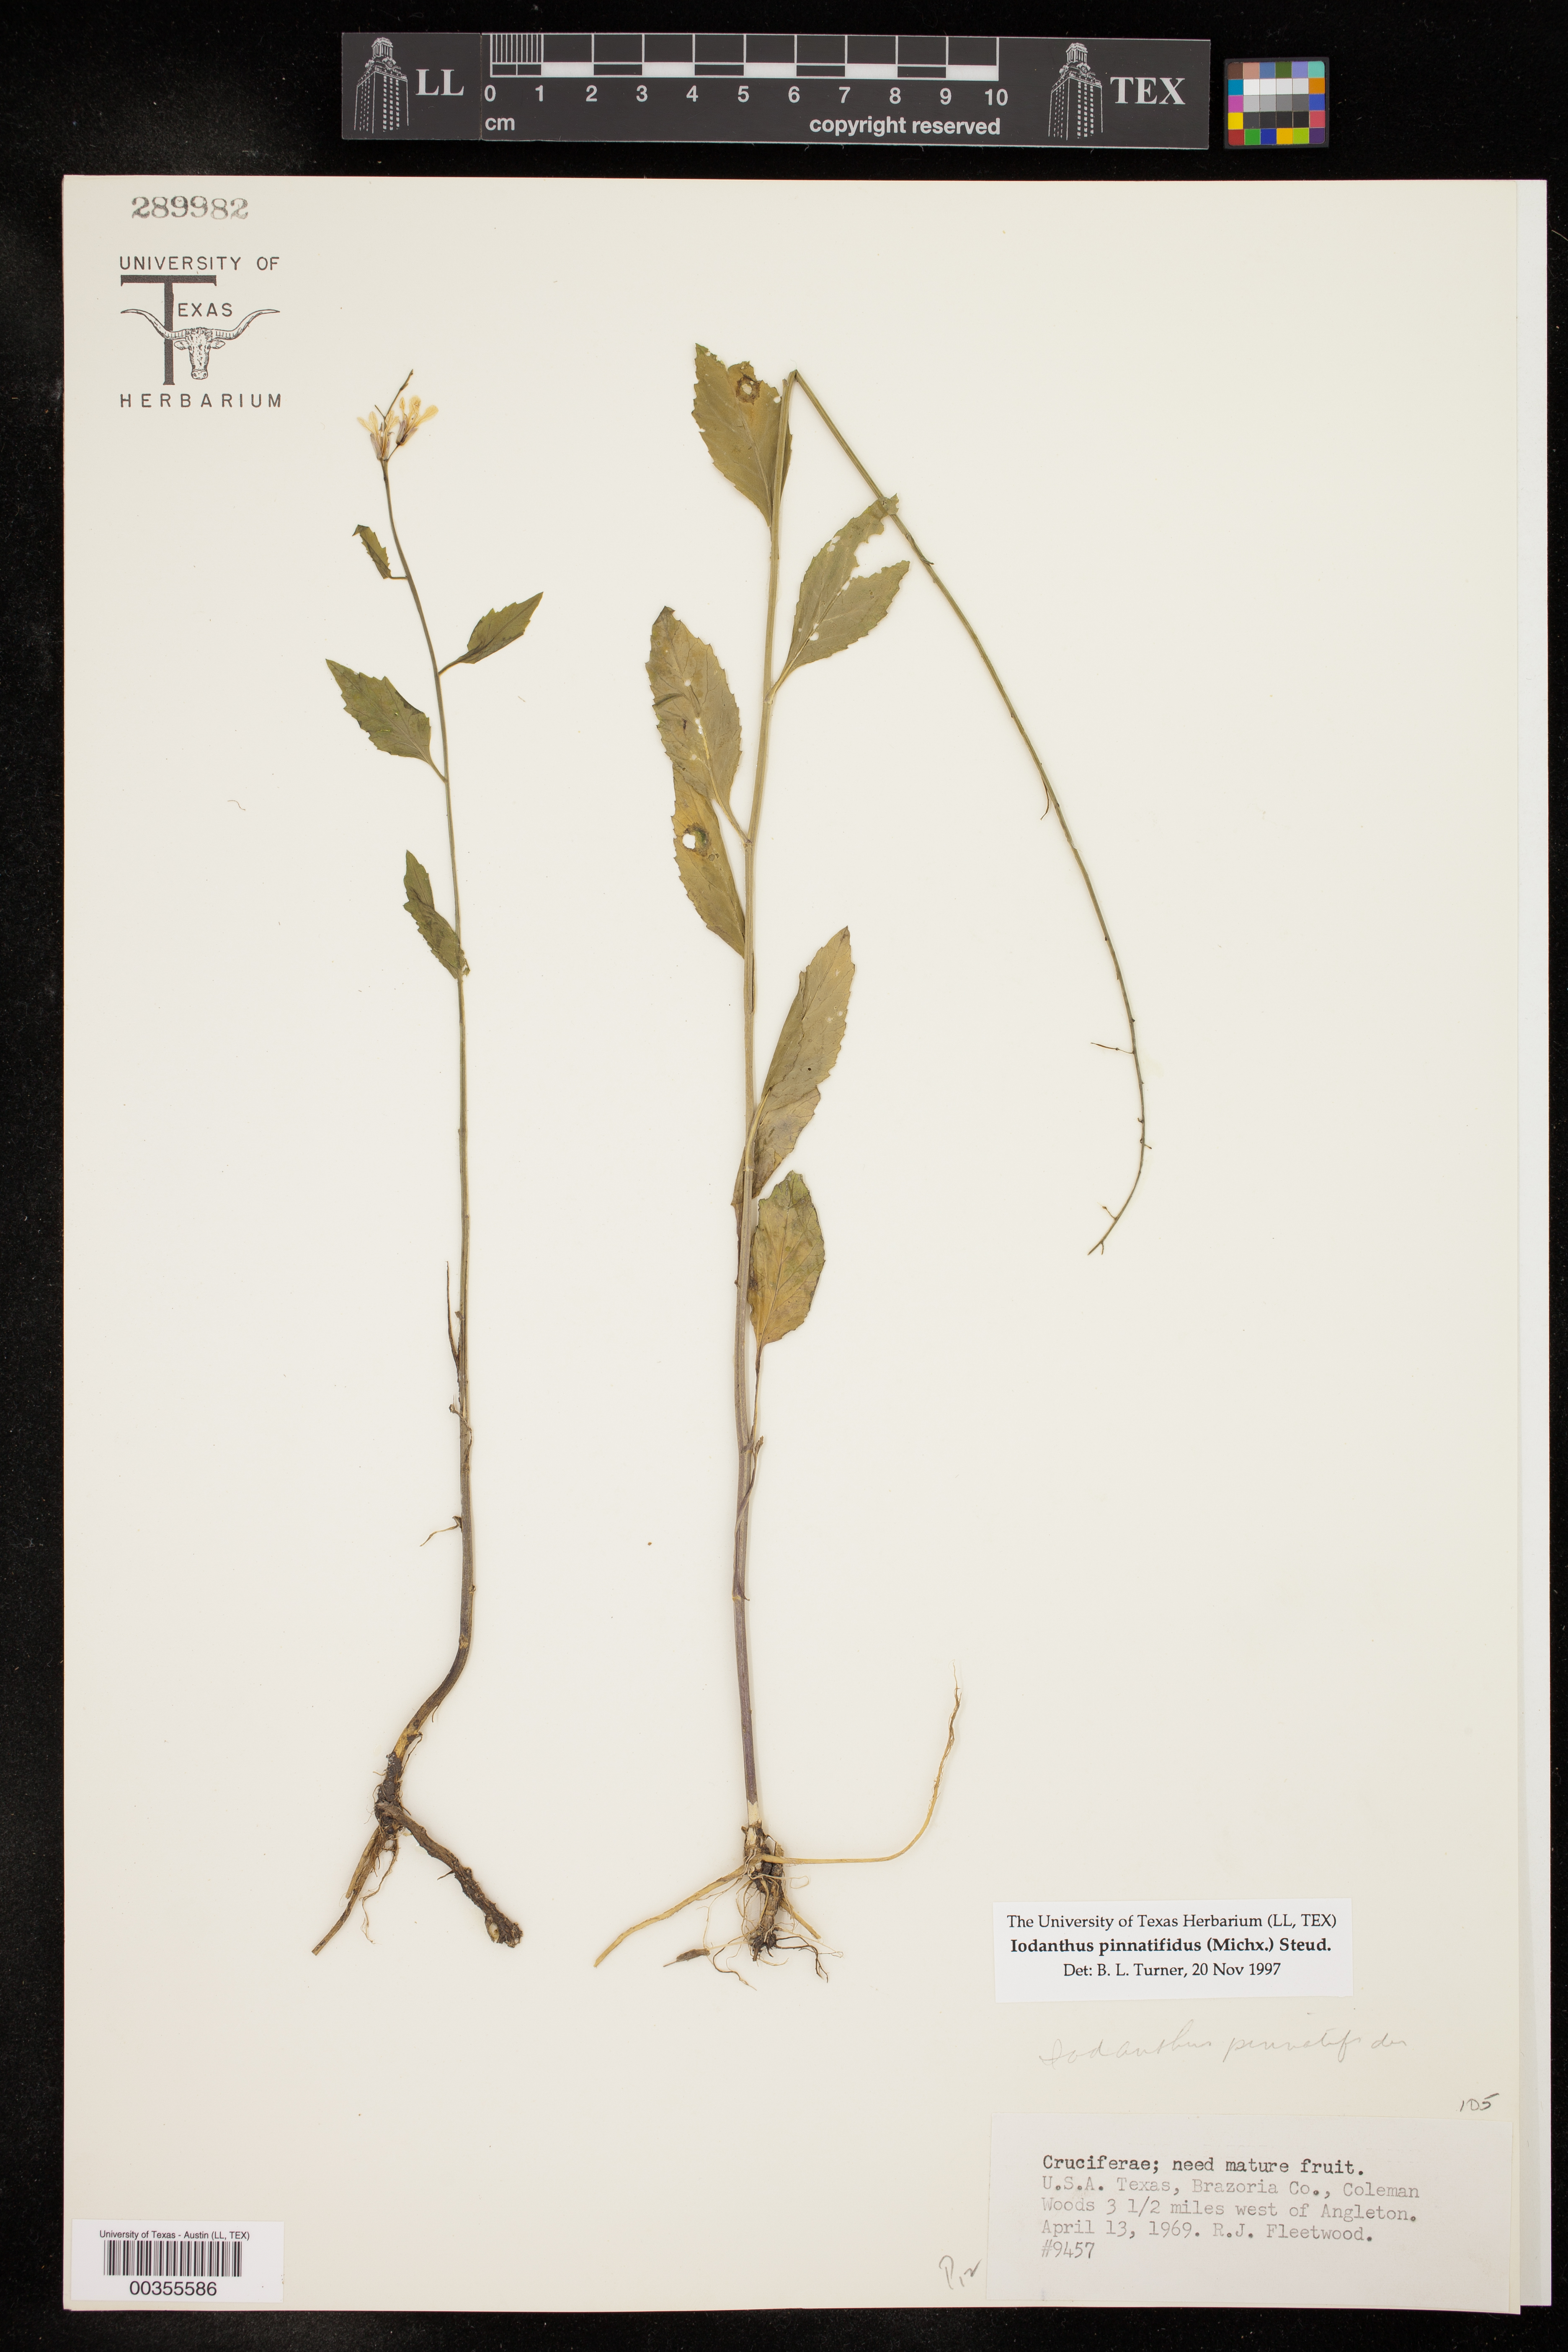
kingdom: Plantae
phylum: Tracheophyta
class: Magnoliopsida
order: Brassicales
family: Brassicaceae
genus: Iodanthus
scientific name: Iodanthus pinnatifidus
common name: Violet rocket
